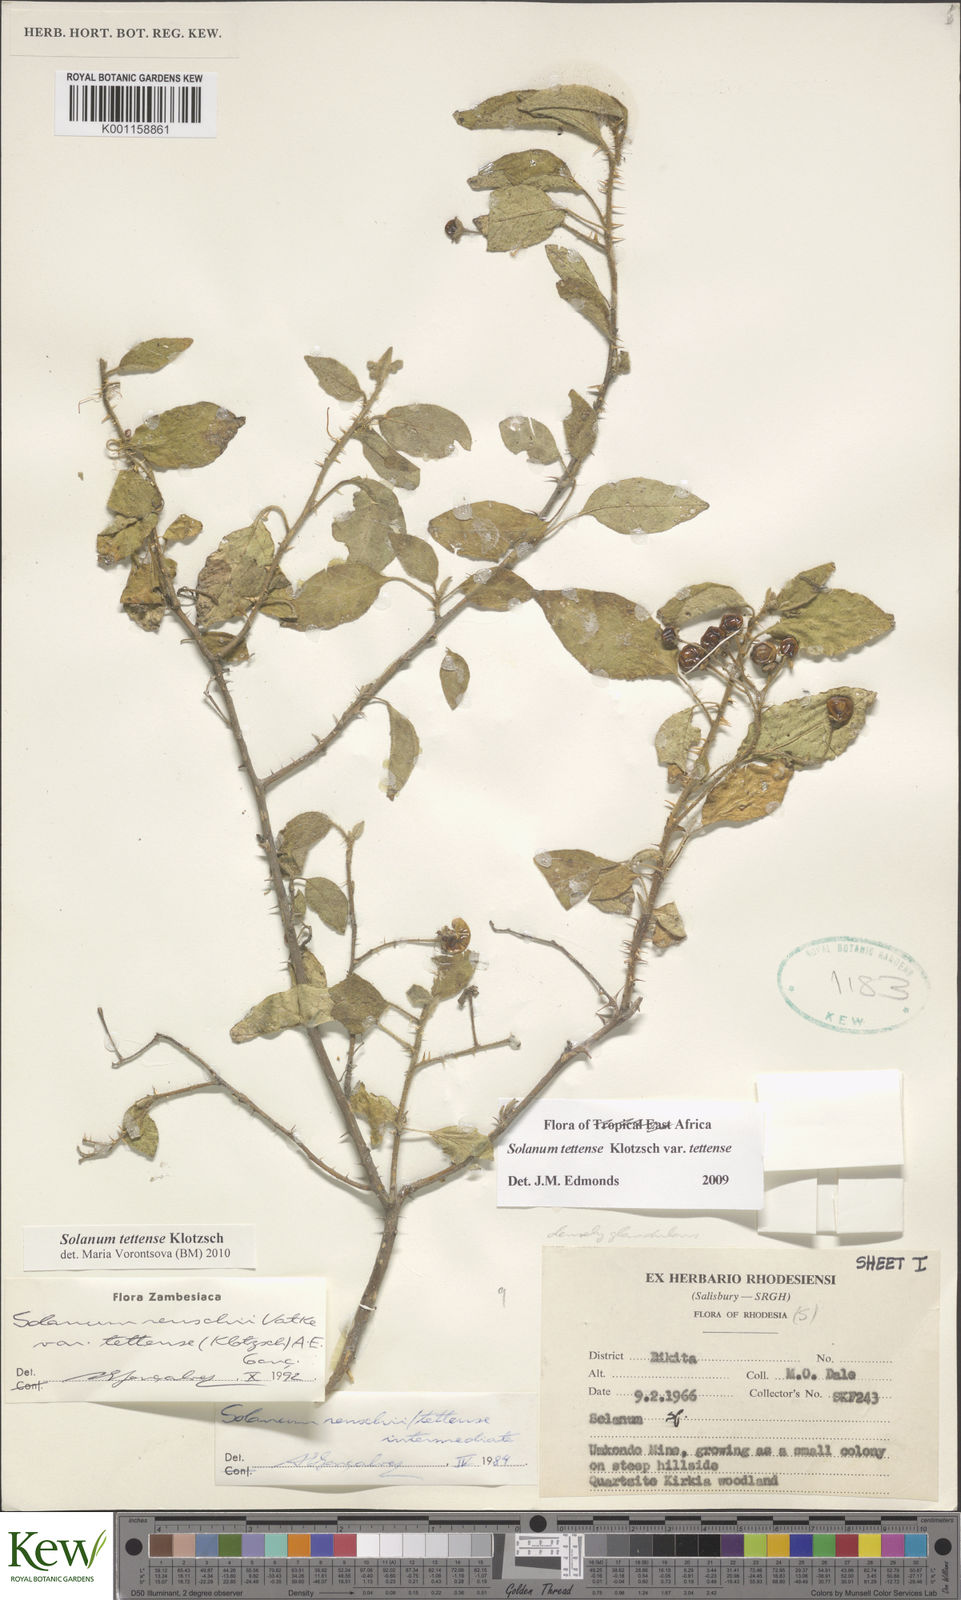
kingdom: Plantae
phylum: Tracheophyta
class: Magnoliopsida
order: Solanales
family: Solanaceae
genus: Solanum
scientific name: Solanum tettense
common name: Mozambique bitter apple
